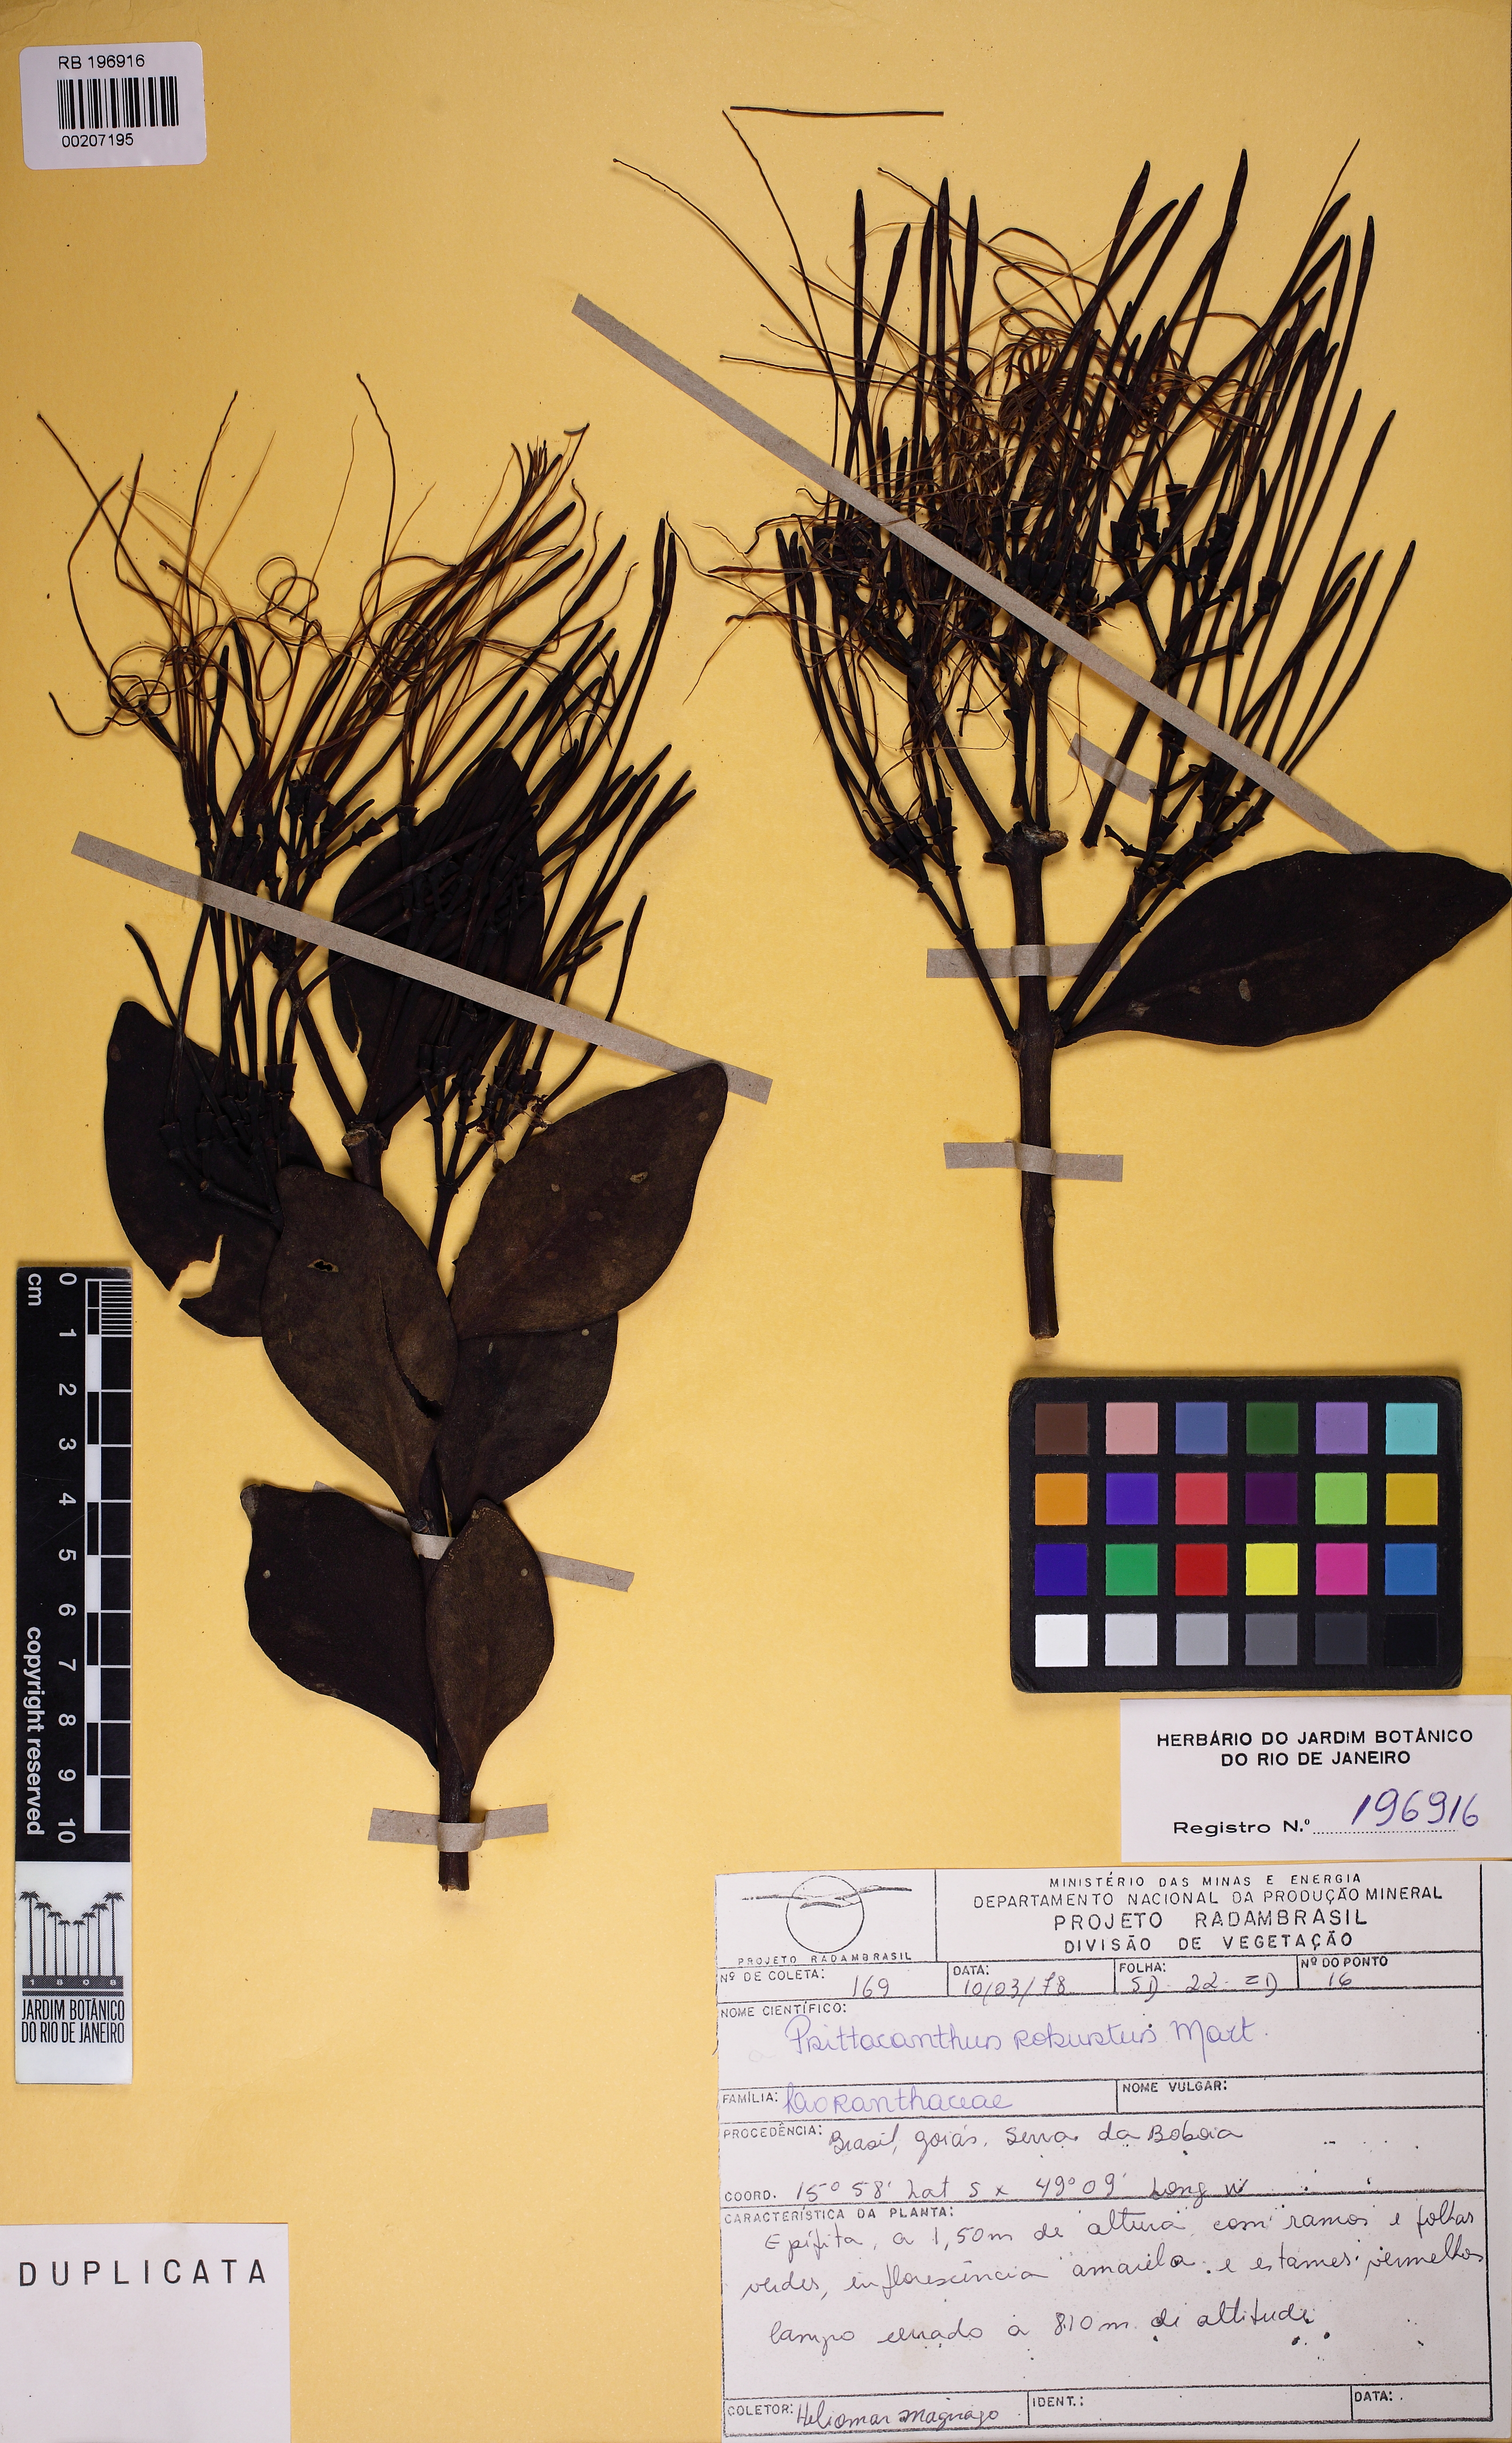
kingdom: Plantae
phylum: Tracheophyta
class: Magnoliopsida
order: Santalales
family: Loranthaceae
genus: Psittacanthus
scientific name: Psittacanthus robustus
